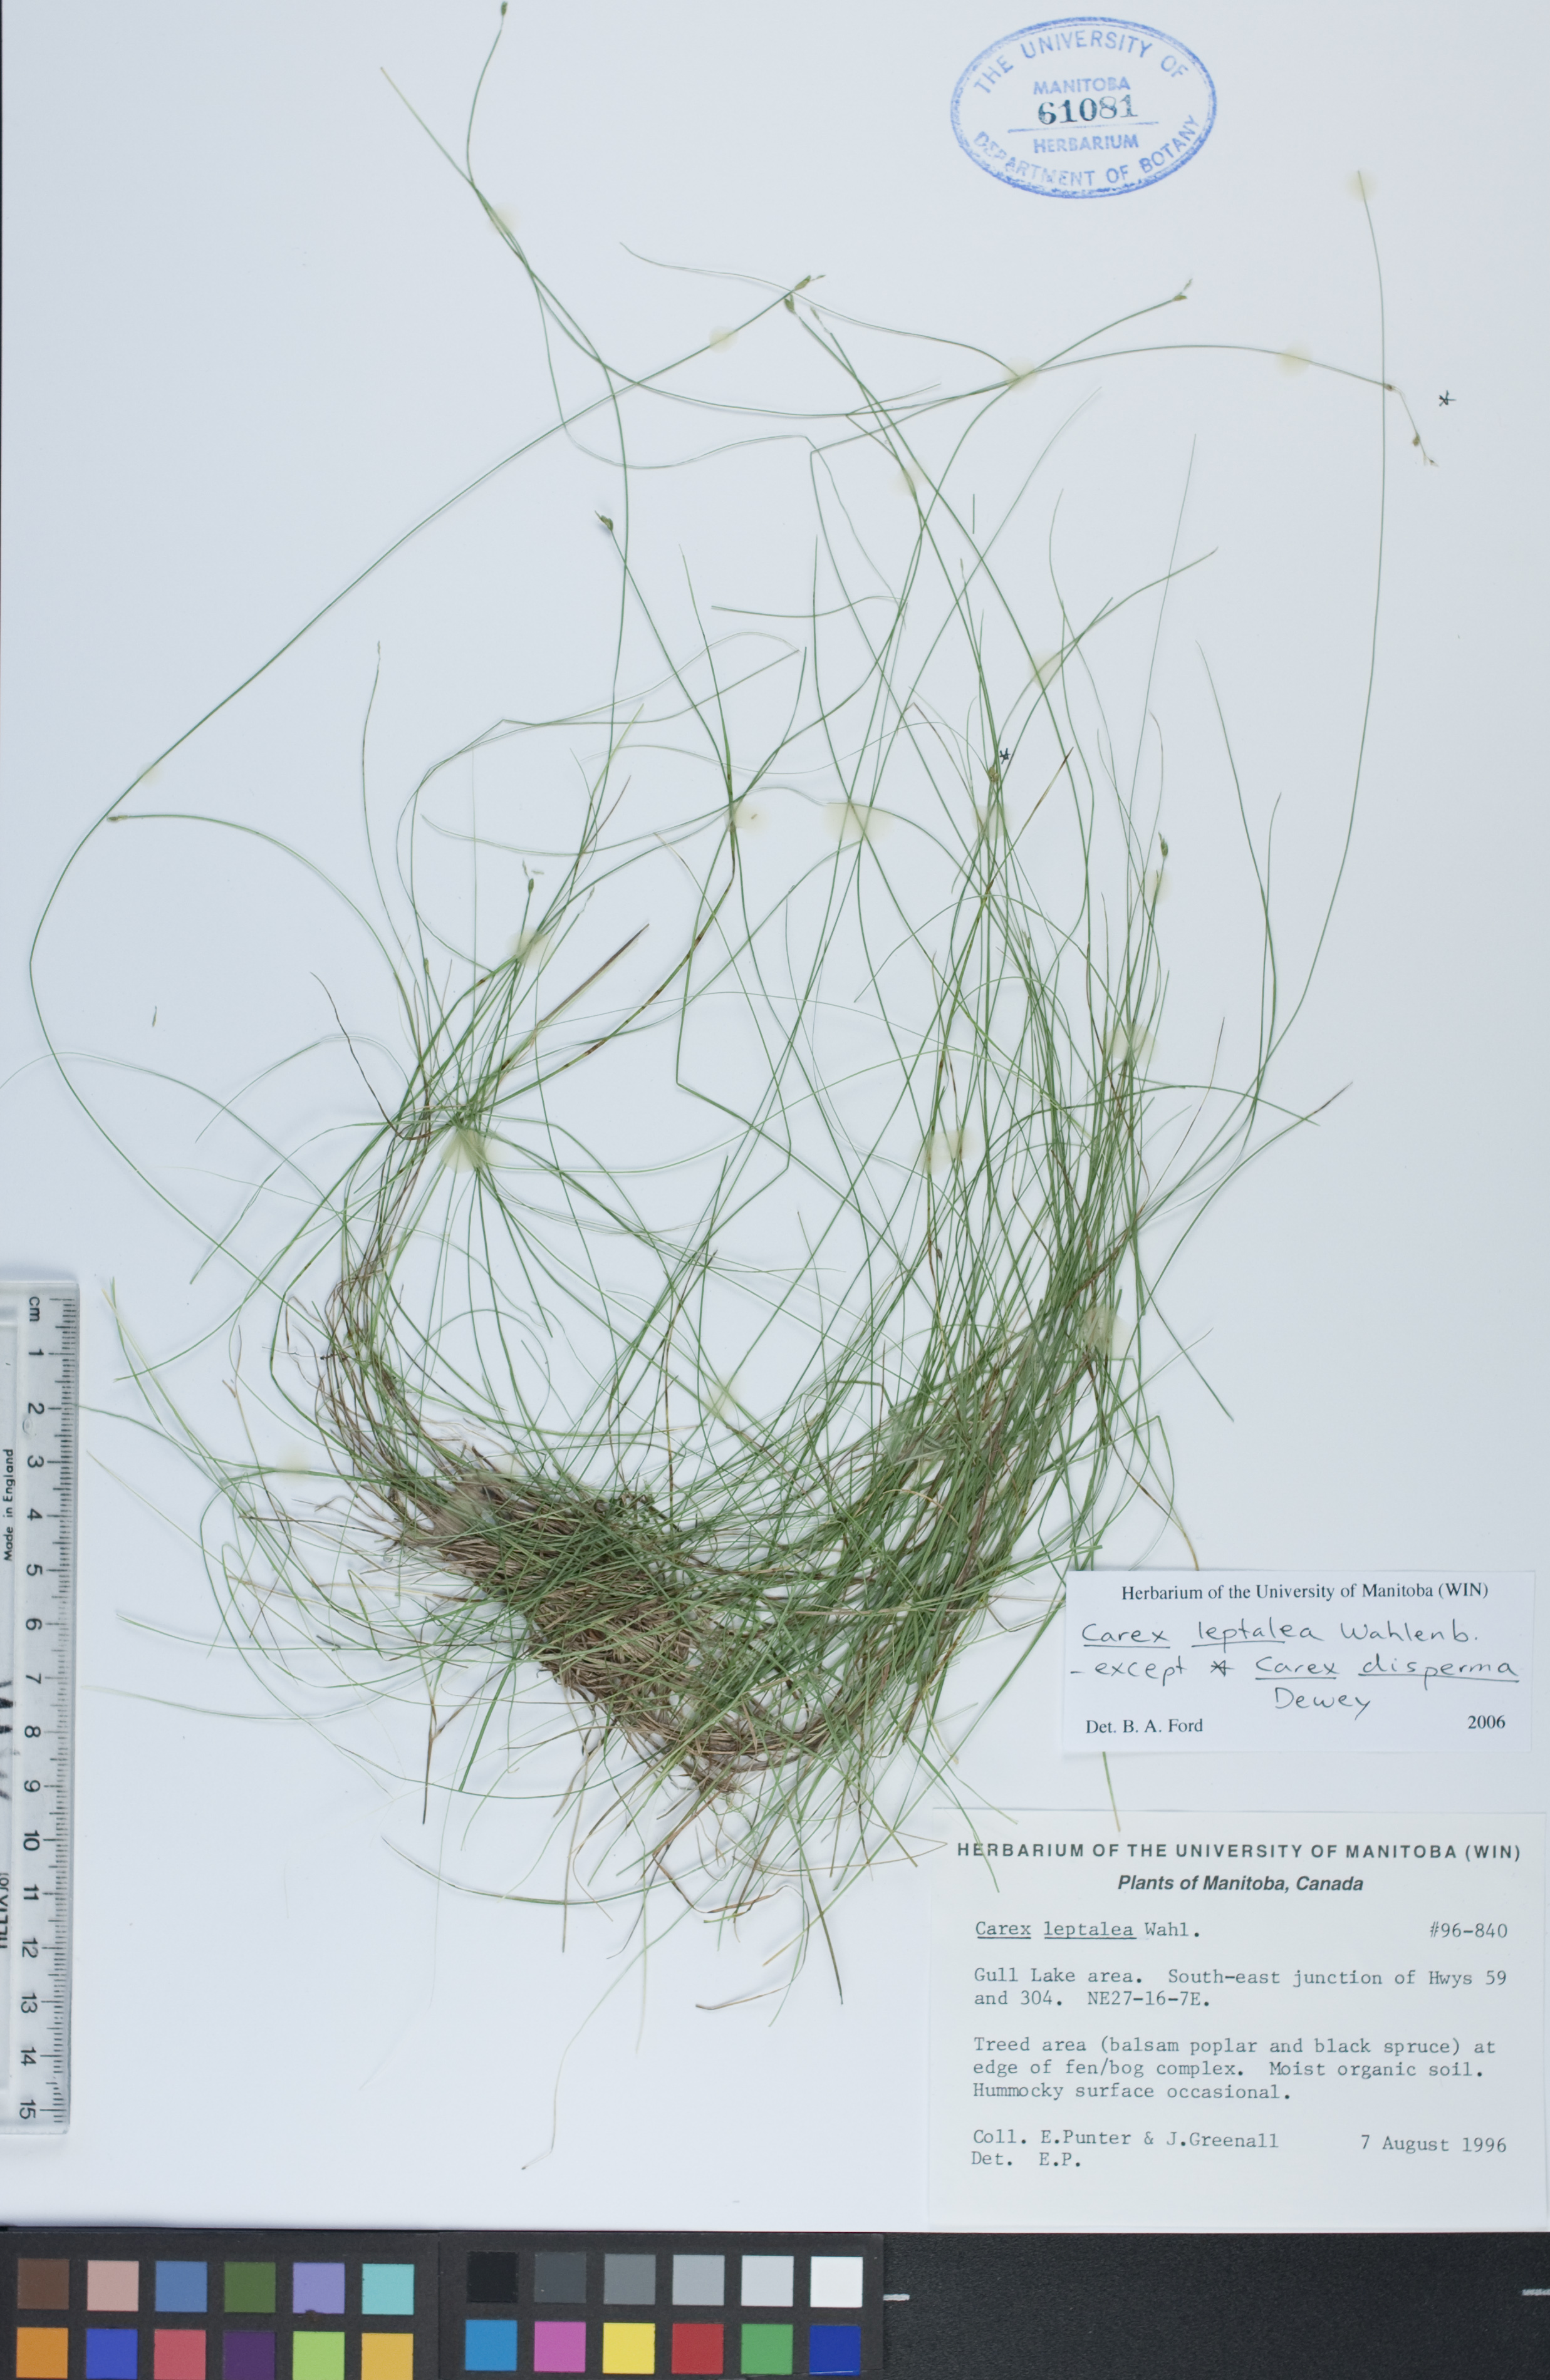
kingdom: Plantae
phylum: Tracheophyta
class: Liliopsida
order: Poales
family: Cyperaceae
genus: Carex
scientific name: Carex leptalea
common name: Bristly-stalked sedge
